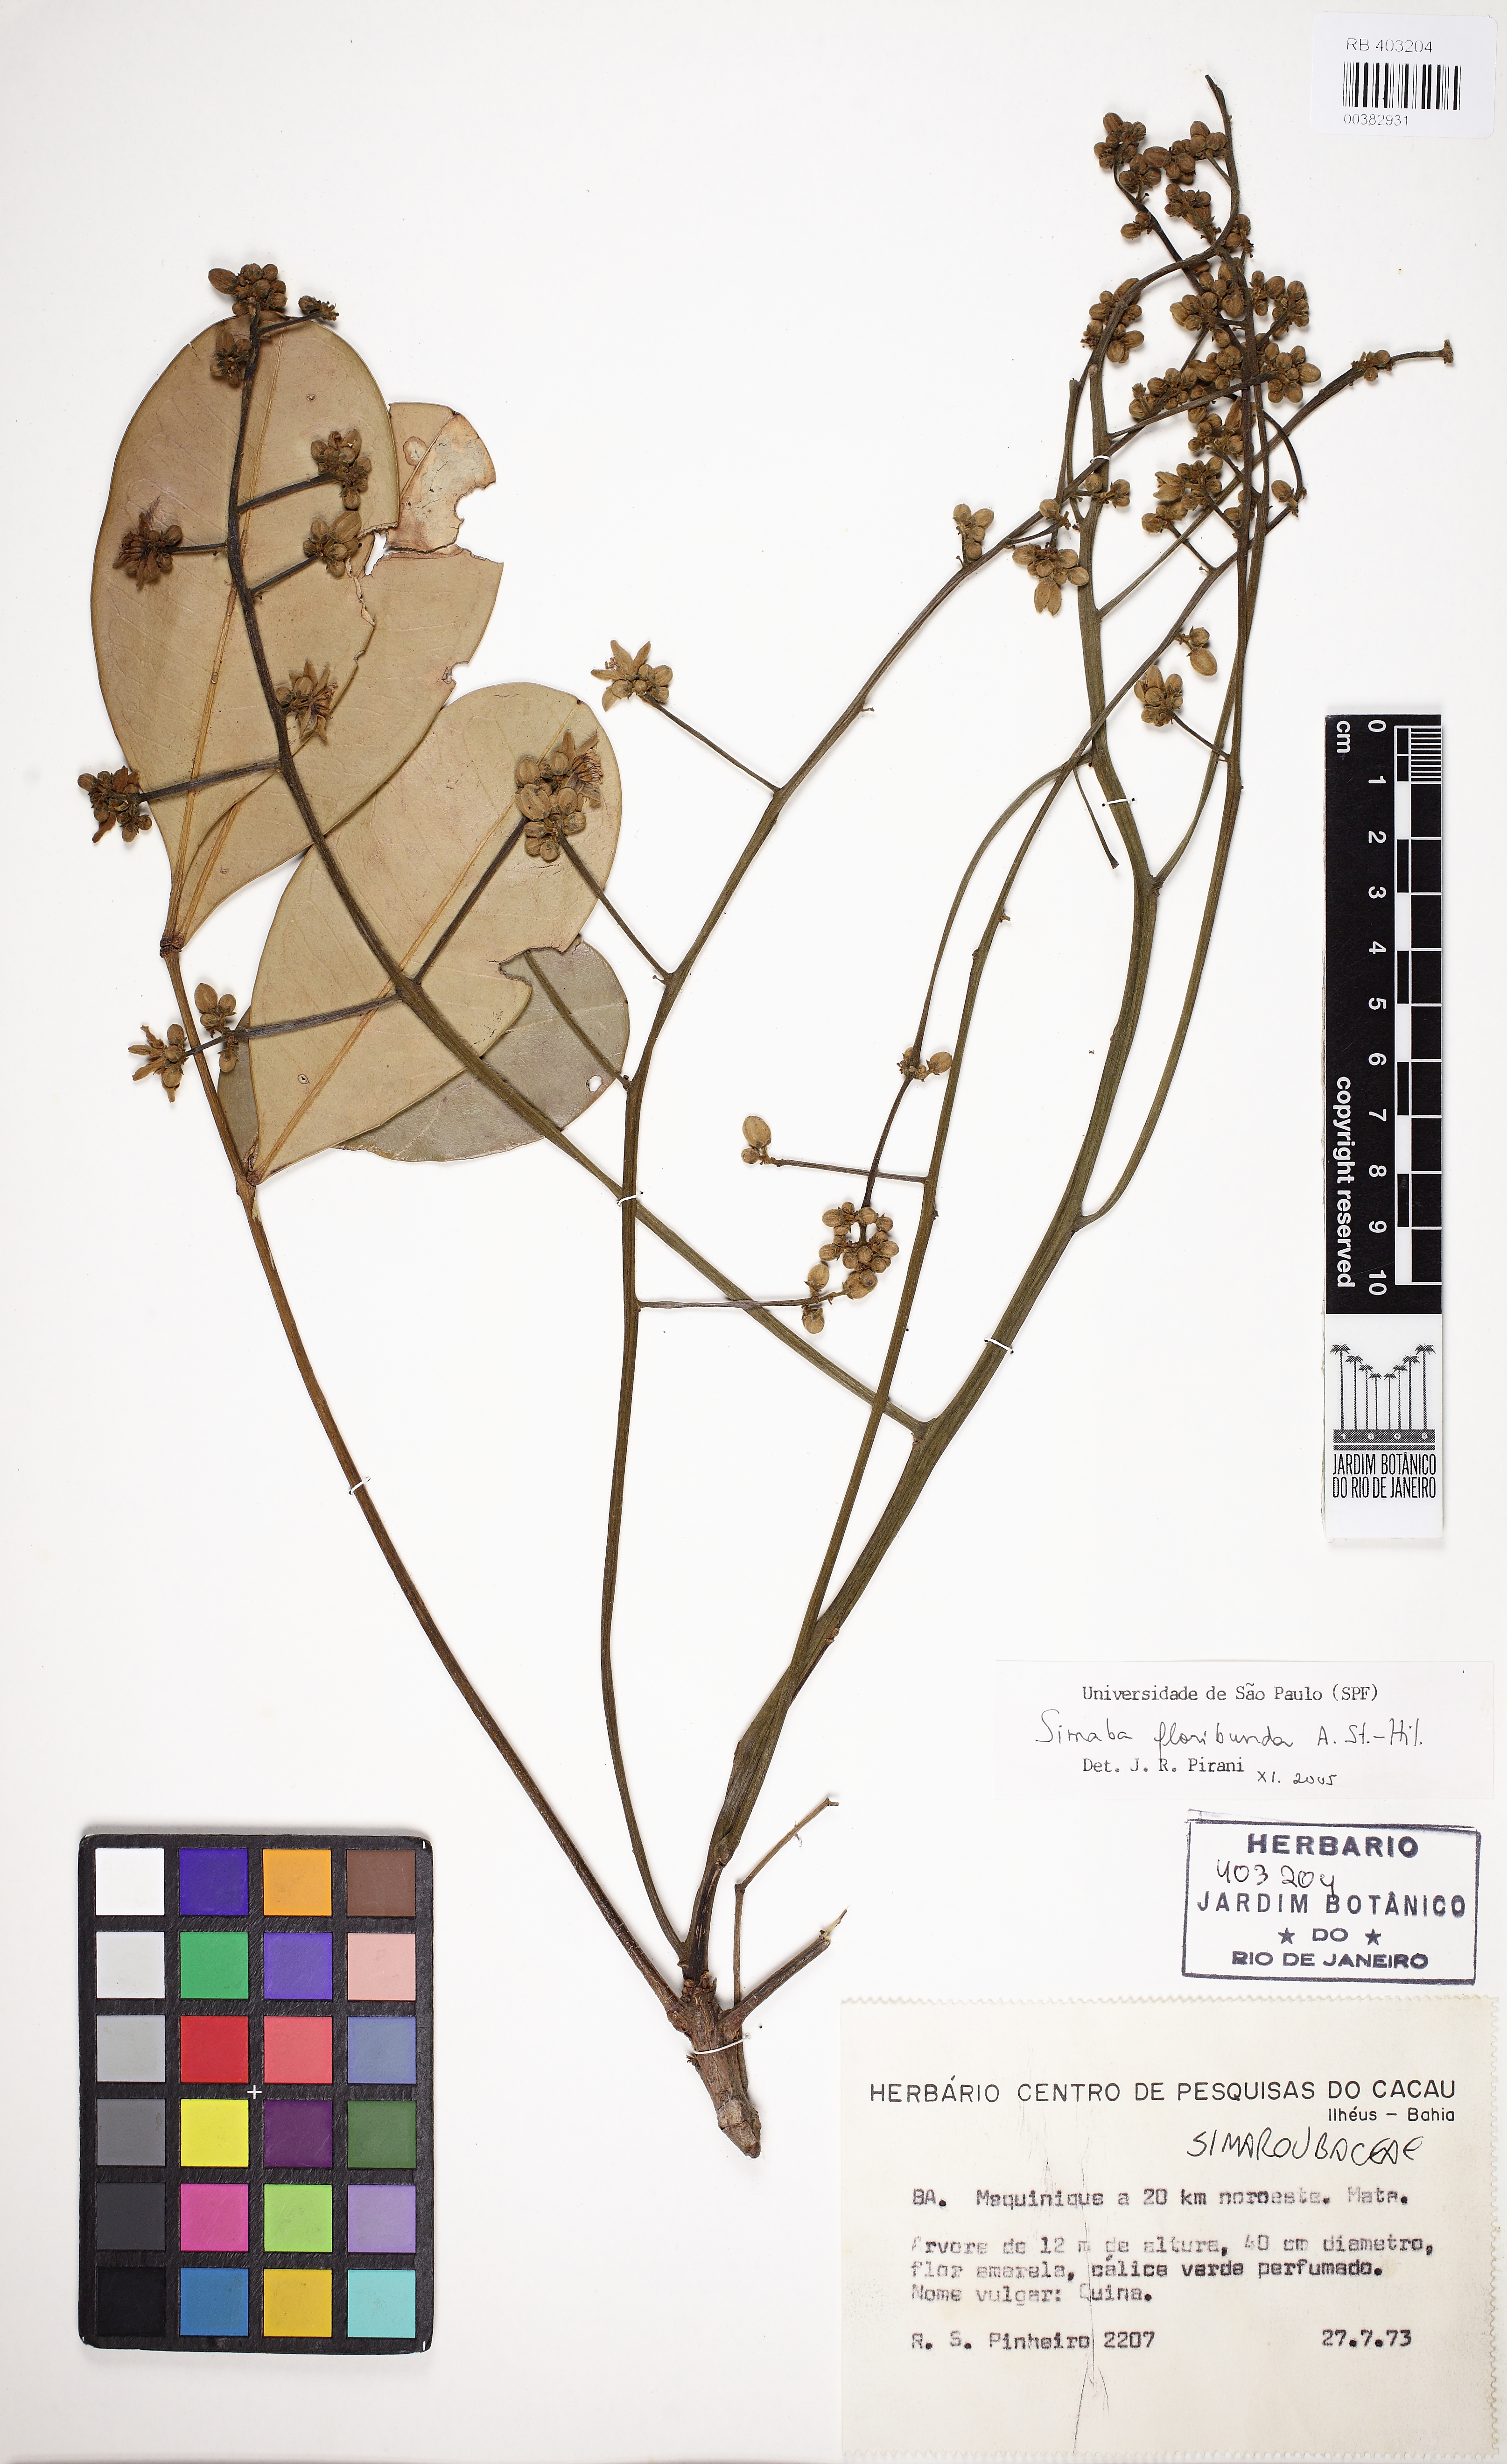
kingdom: Plantae
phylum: Tracheophyta
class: Magnoliopsida
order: Sapindales
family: Simaroubaceae
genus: Homalolepis
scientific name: Homalolepis cuneata
